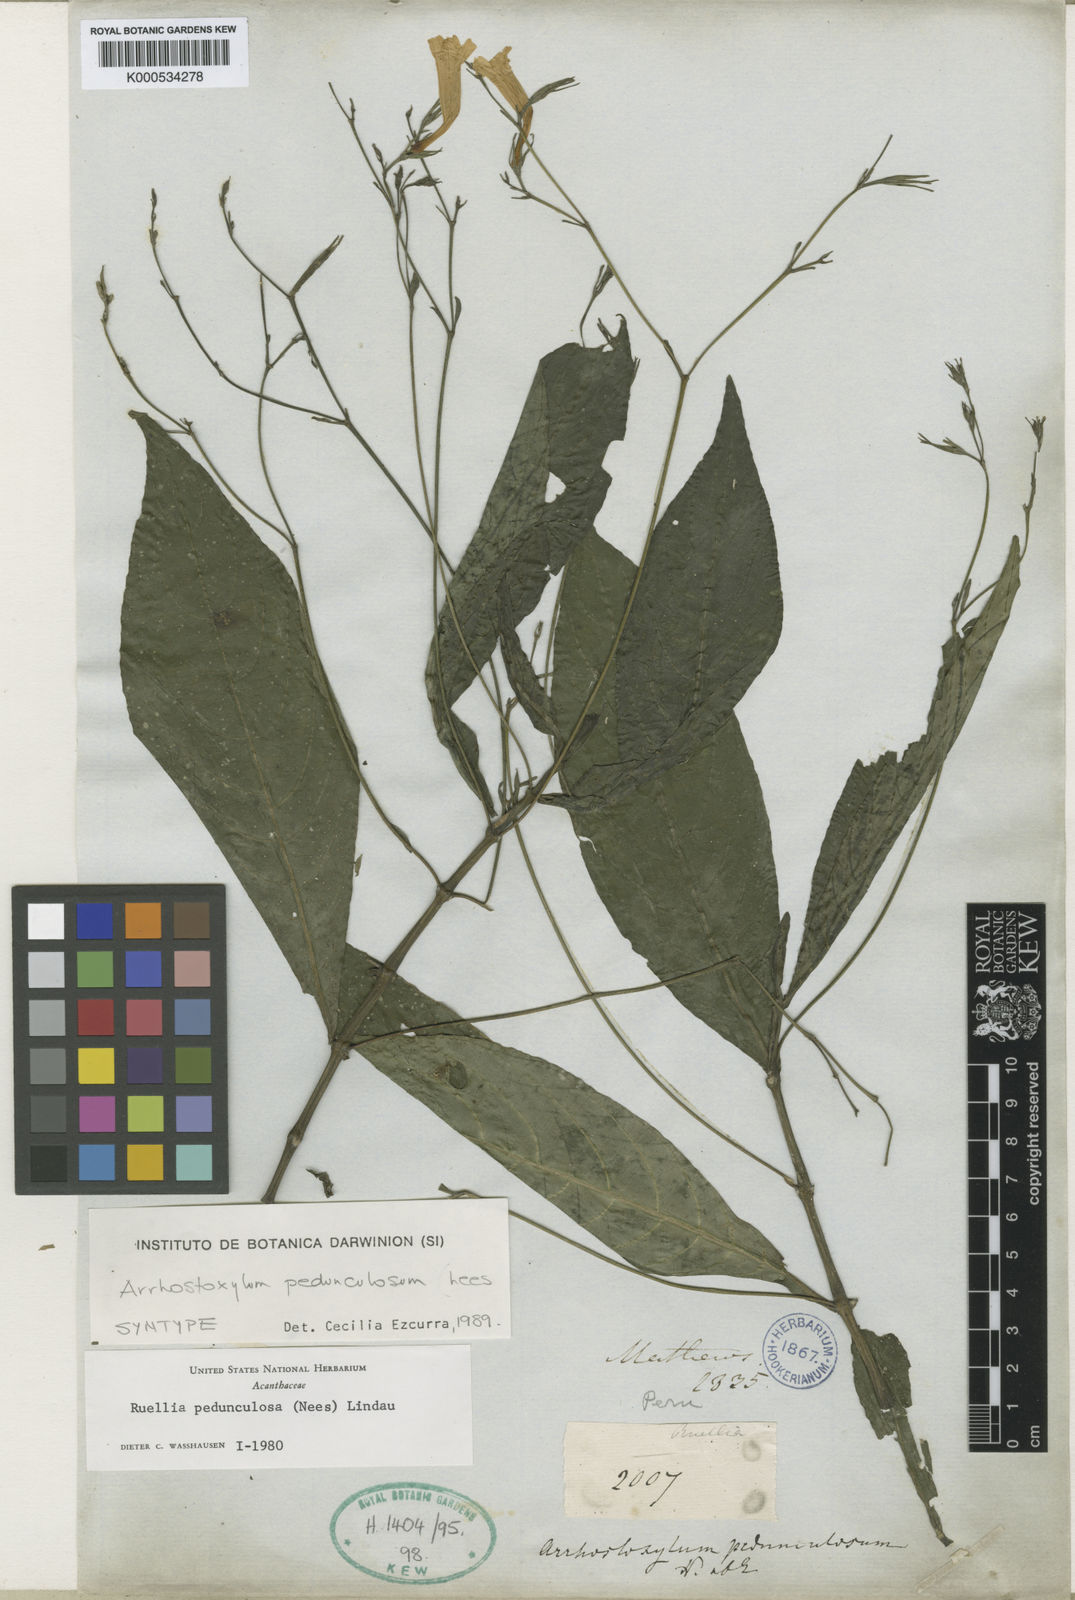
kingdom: Plantae
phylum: Tracheophyta
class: Magnoliopsida
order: Lamiales
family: Acanthaceae
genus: Ruellia
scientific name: Ruellia
